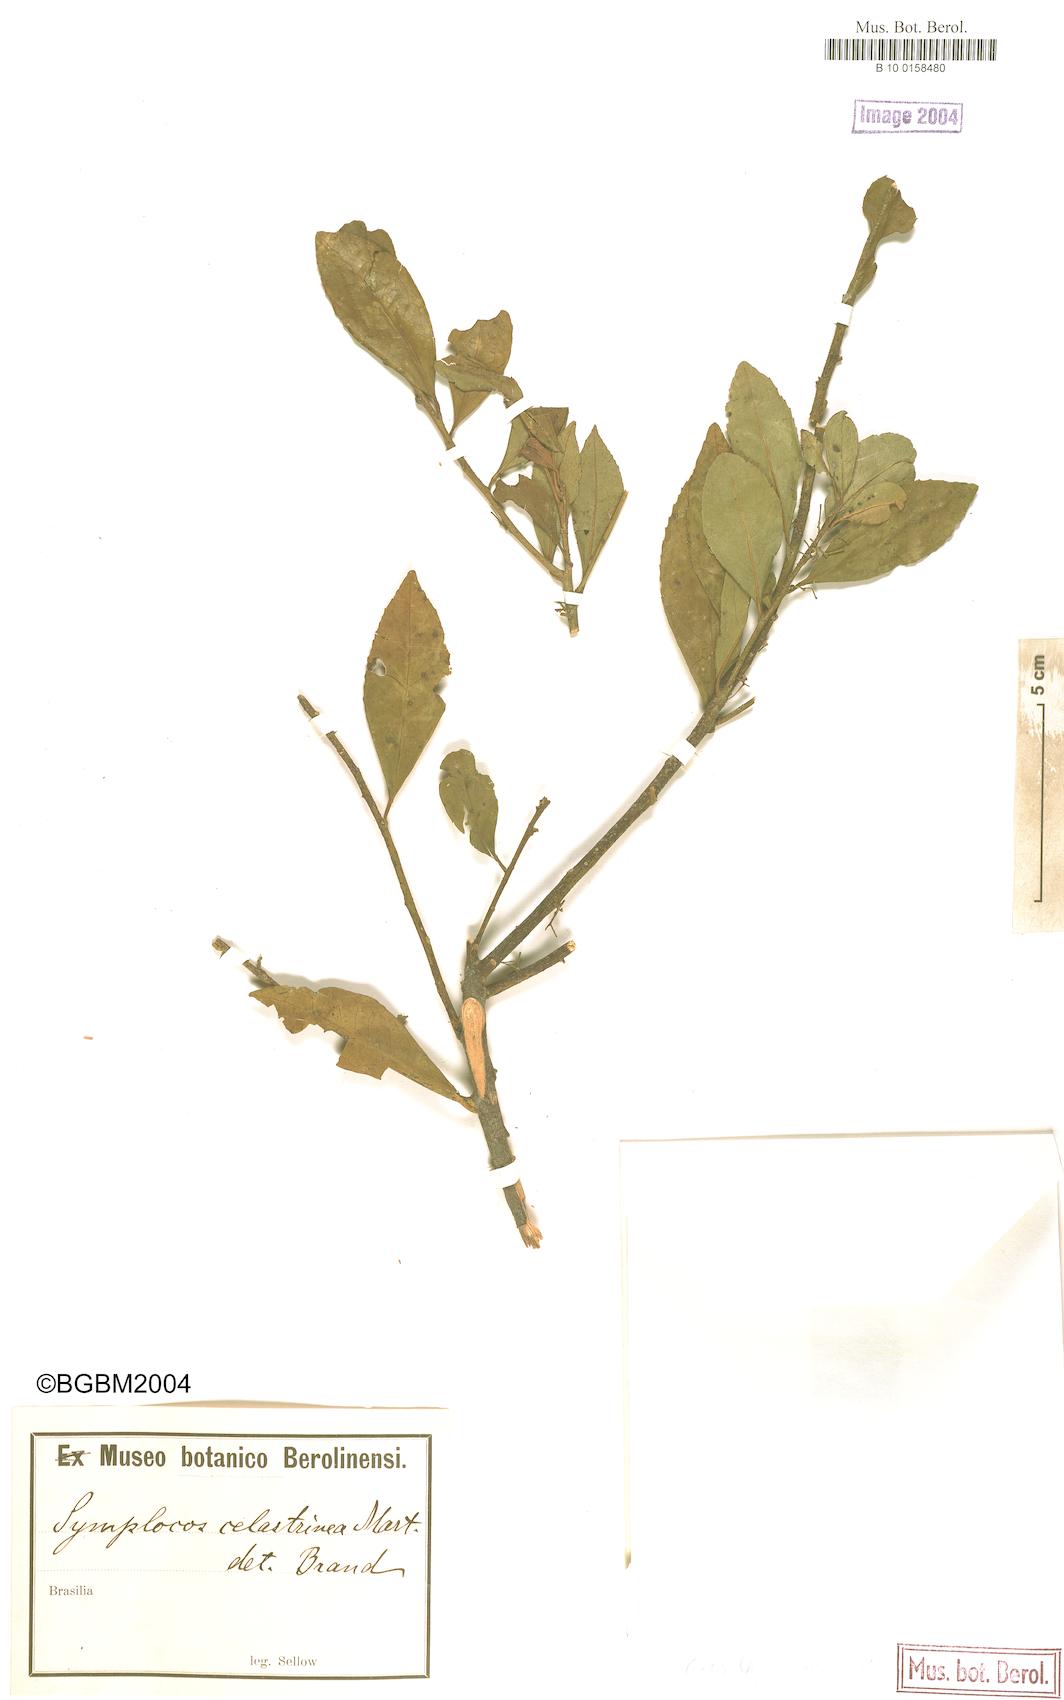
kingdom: Plantae
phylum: Tracheophyta
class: Magnoliopsida
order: Ericales
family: Symplocaceae
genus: Symplocos
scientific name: Symplocos celastrinea
